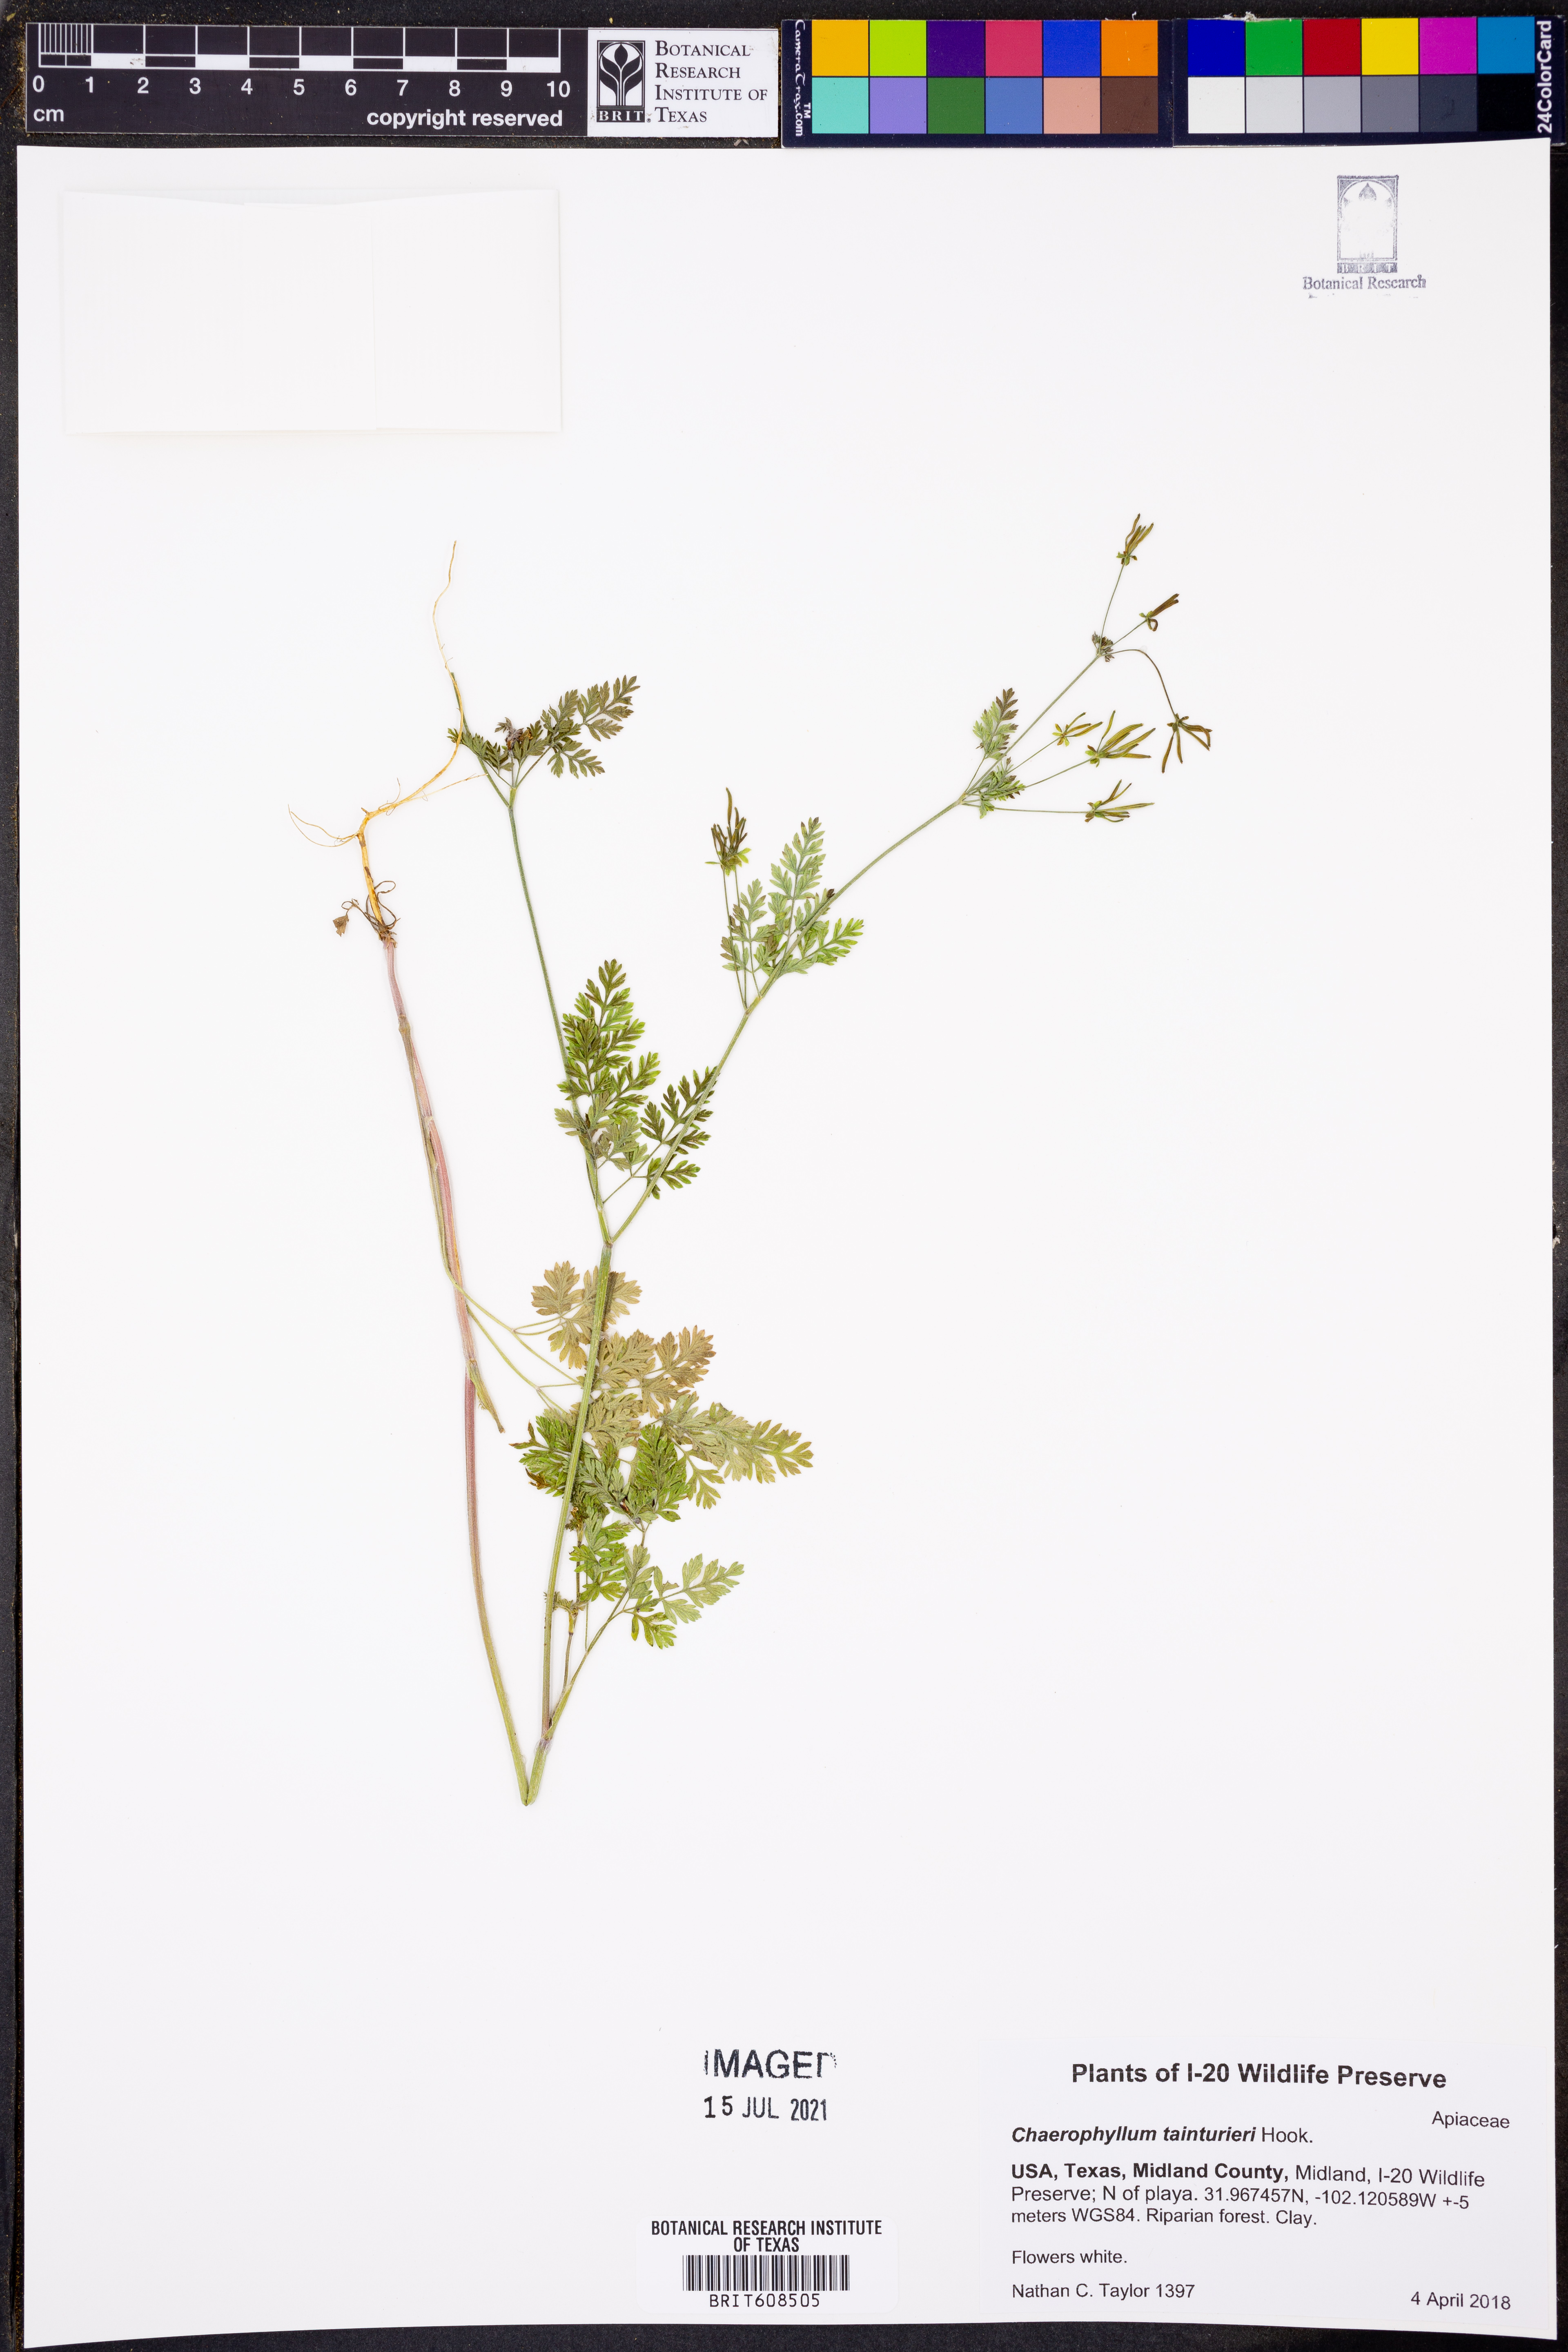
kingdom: Plantae
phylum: Tracheophyta
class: Magnoliopsida
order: Apiales
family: Apiaceae
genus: Chaerophyllum
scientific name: Chaerophyllum tainturieri
